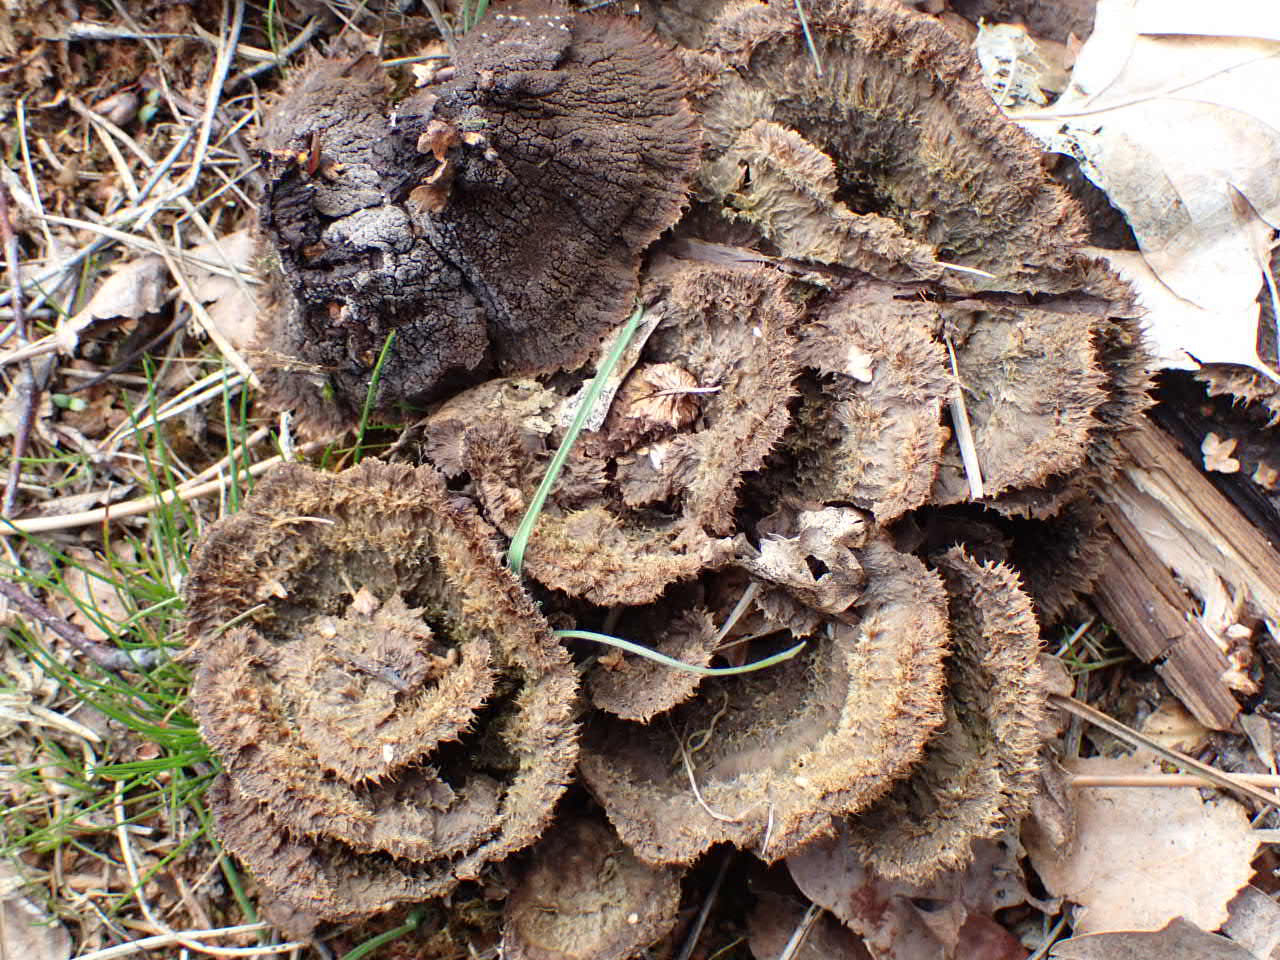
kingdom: Fungi
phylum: Basidiomycota
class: Agaricomycetes
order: Thelephorales
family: Thelephoraceae
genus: Thelephora
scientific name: Thelephora terrestris
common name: fliget frynsesvamp
